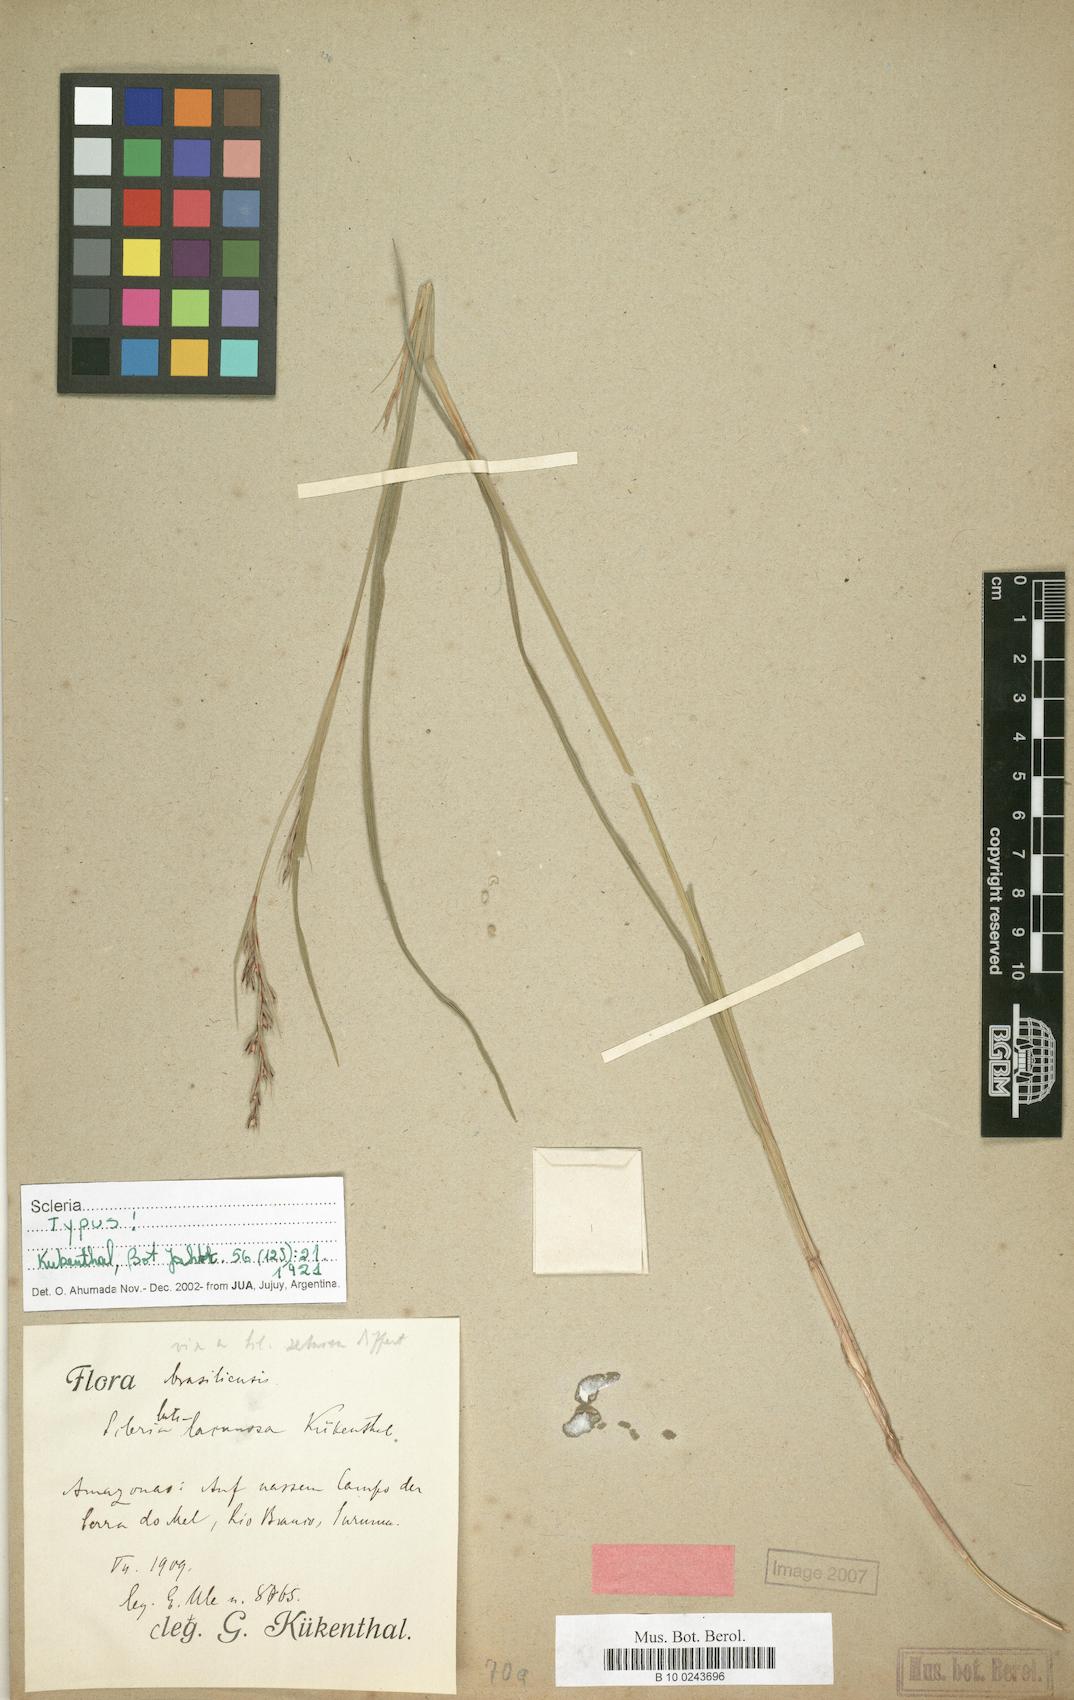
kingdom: Plantae
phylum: Tracheophyta
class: Liliopsida
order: Poales
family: Cyperaceae
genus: Scleria
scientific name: Scleria muehlenbergii
